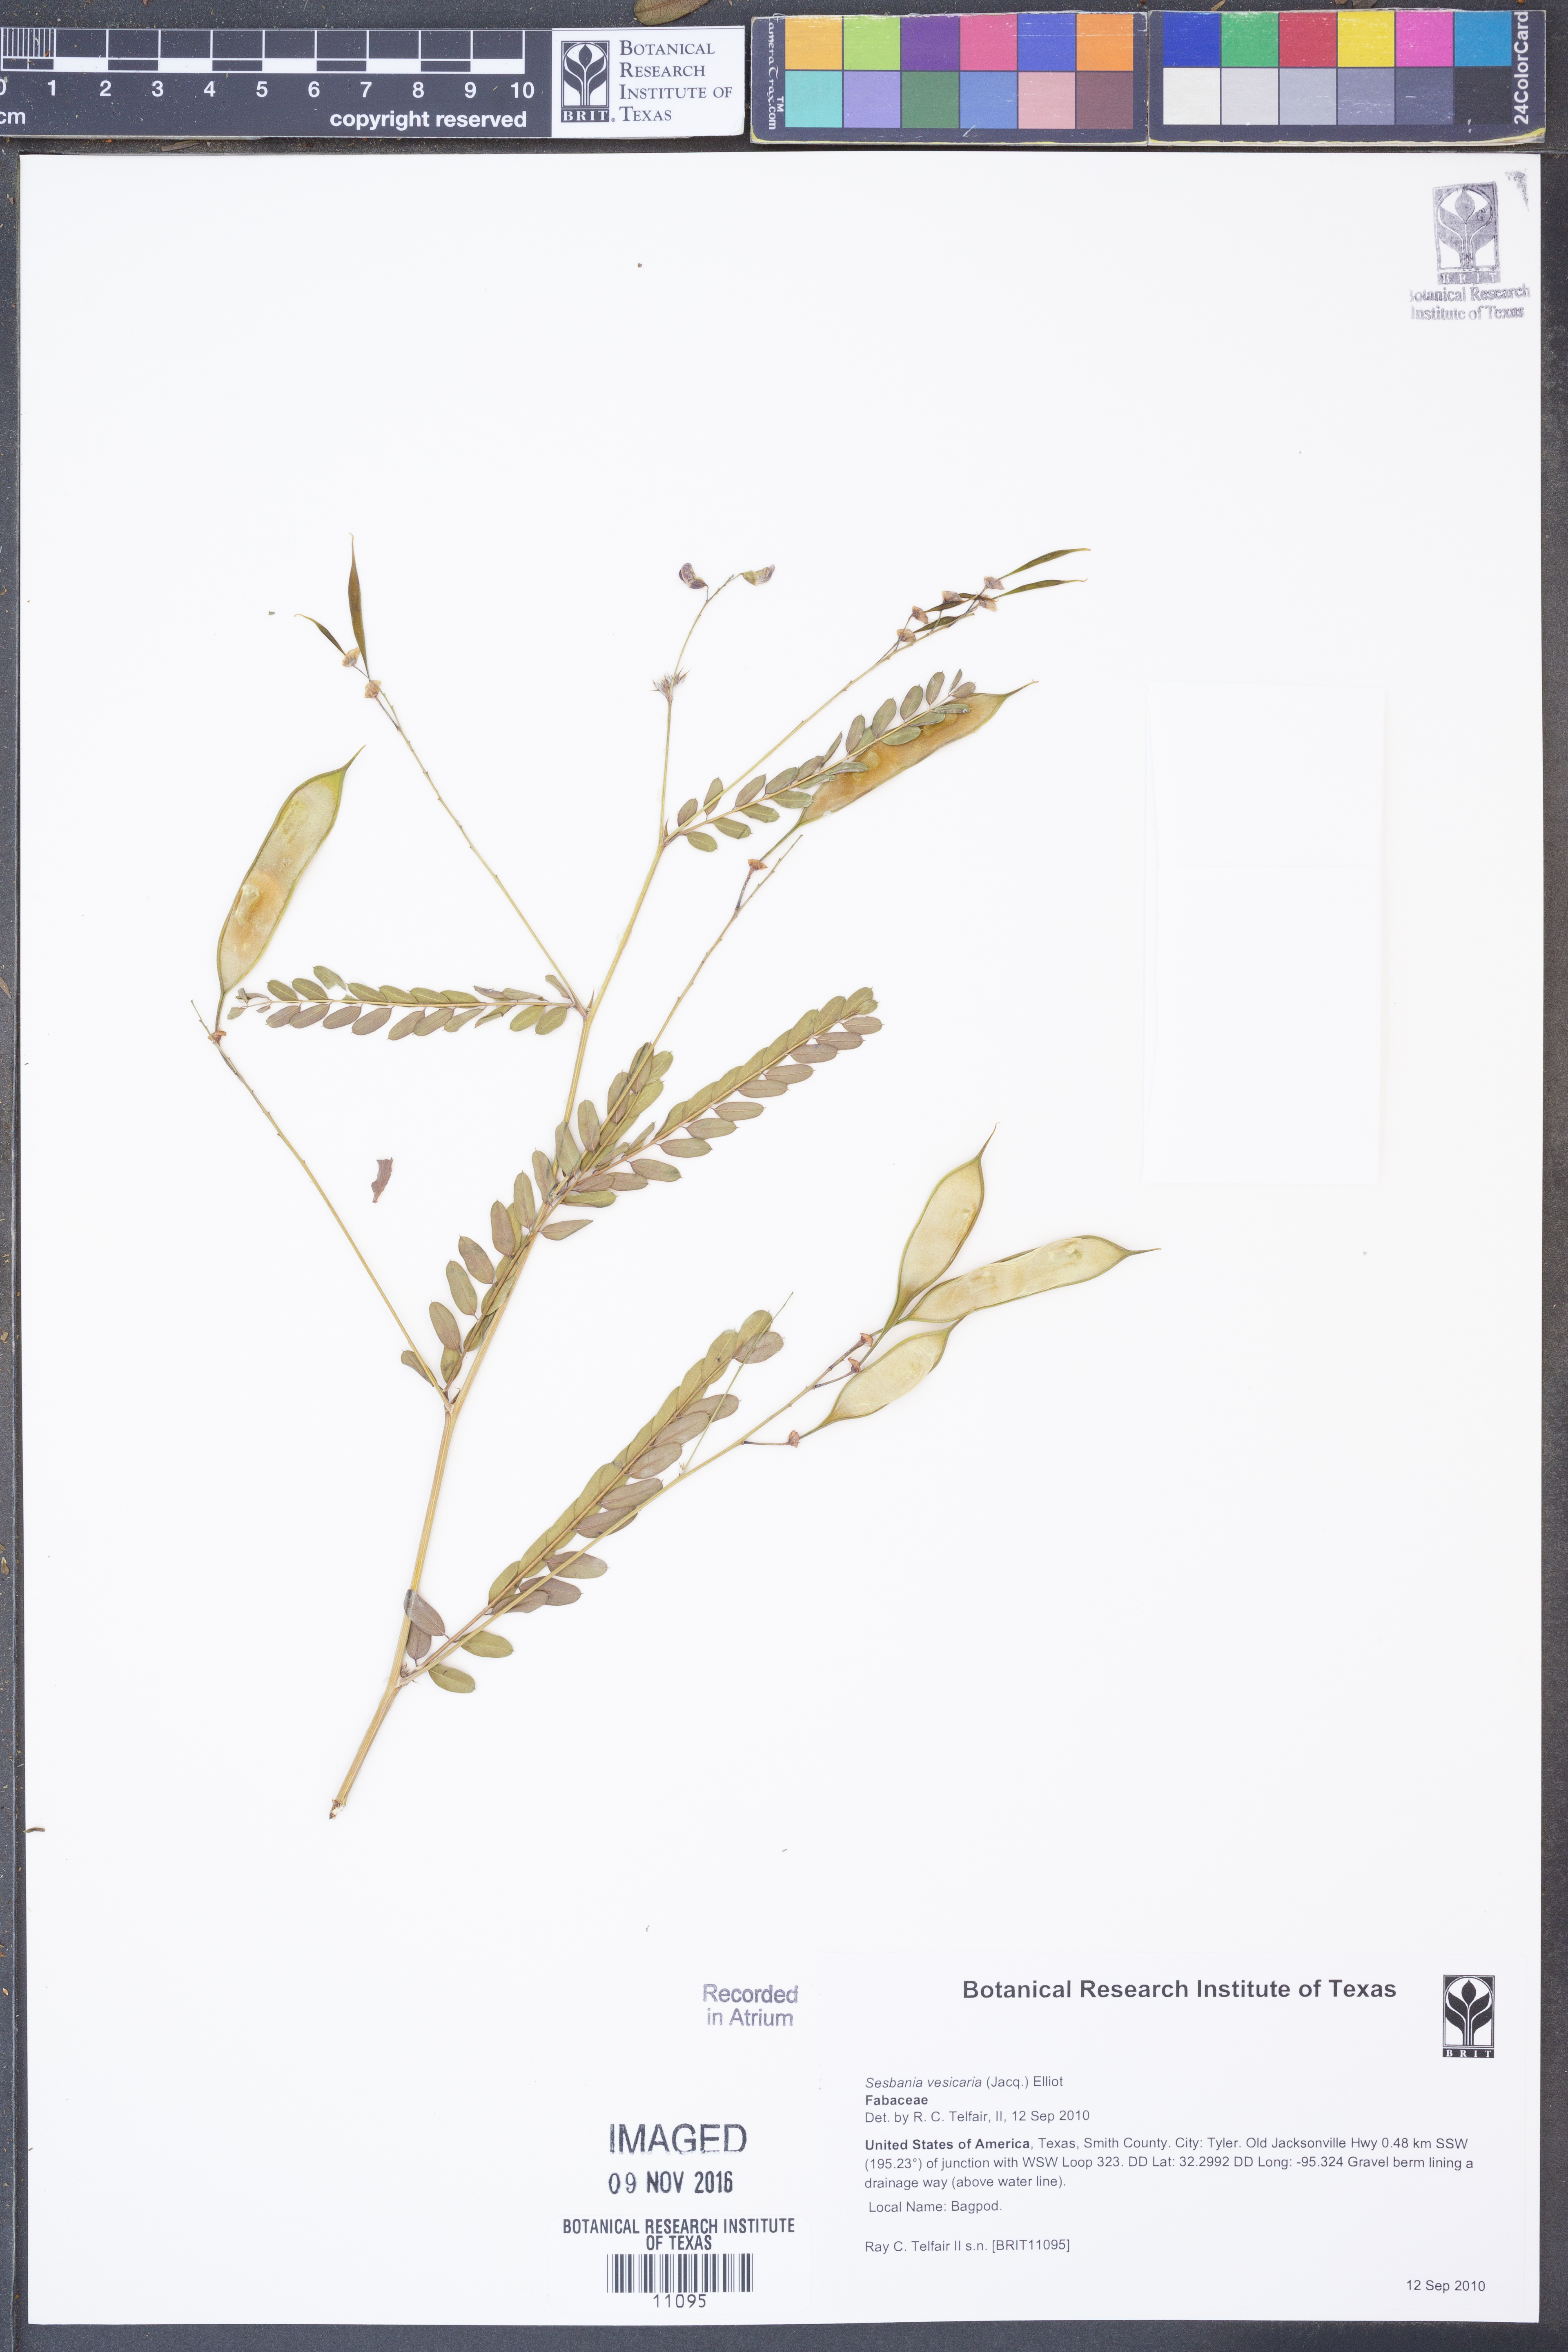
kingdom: Plantae
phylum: Tracheophyta
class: Magnoliopsida
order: Fabales
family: Fabaceae
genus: Sesbania
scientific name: Sesbania vesicaria
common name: Bagpod
